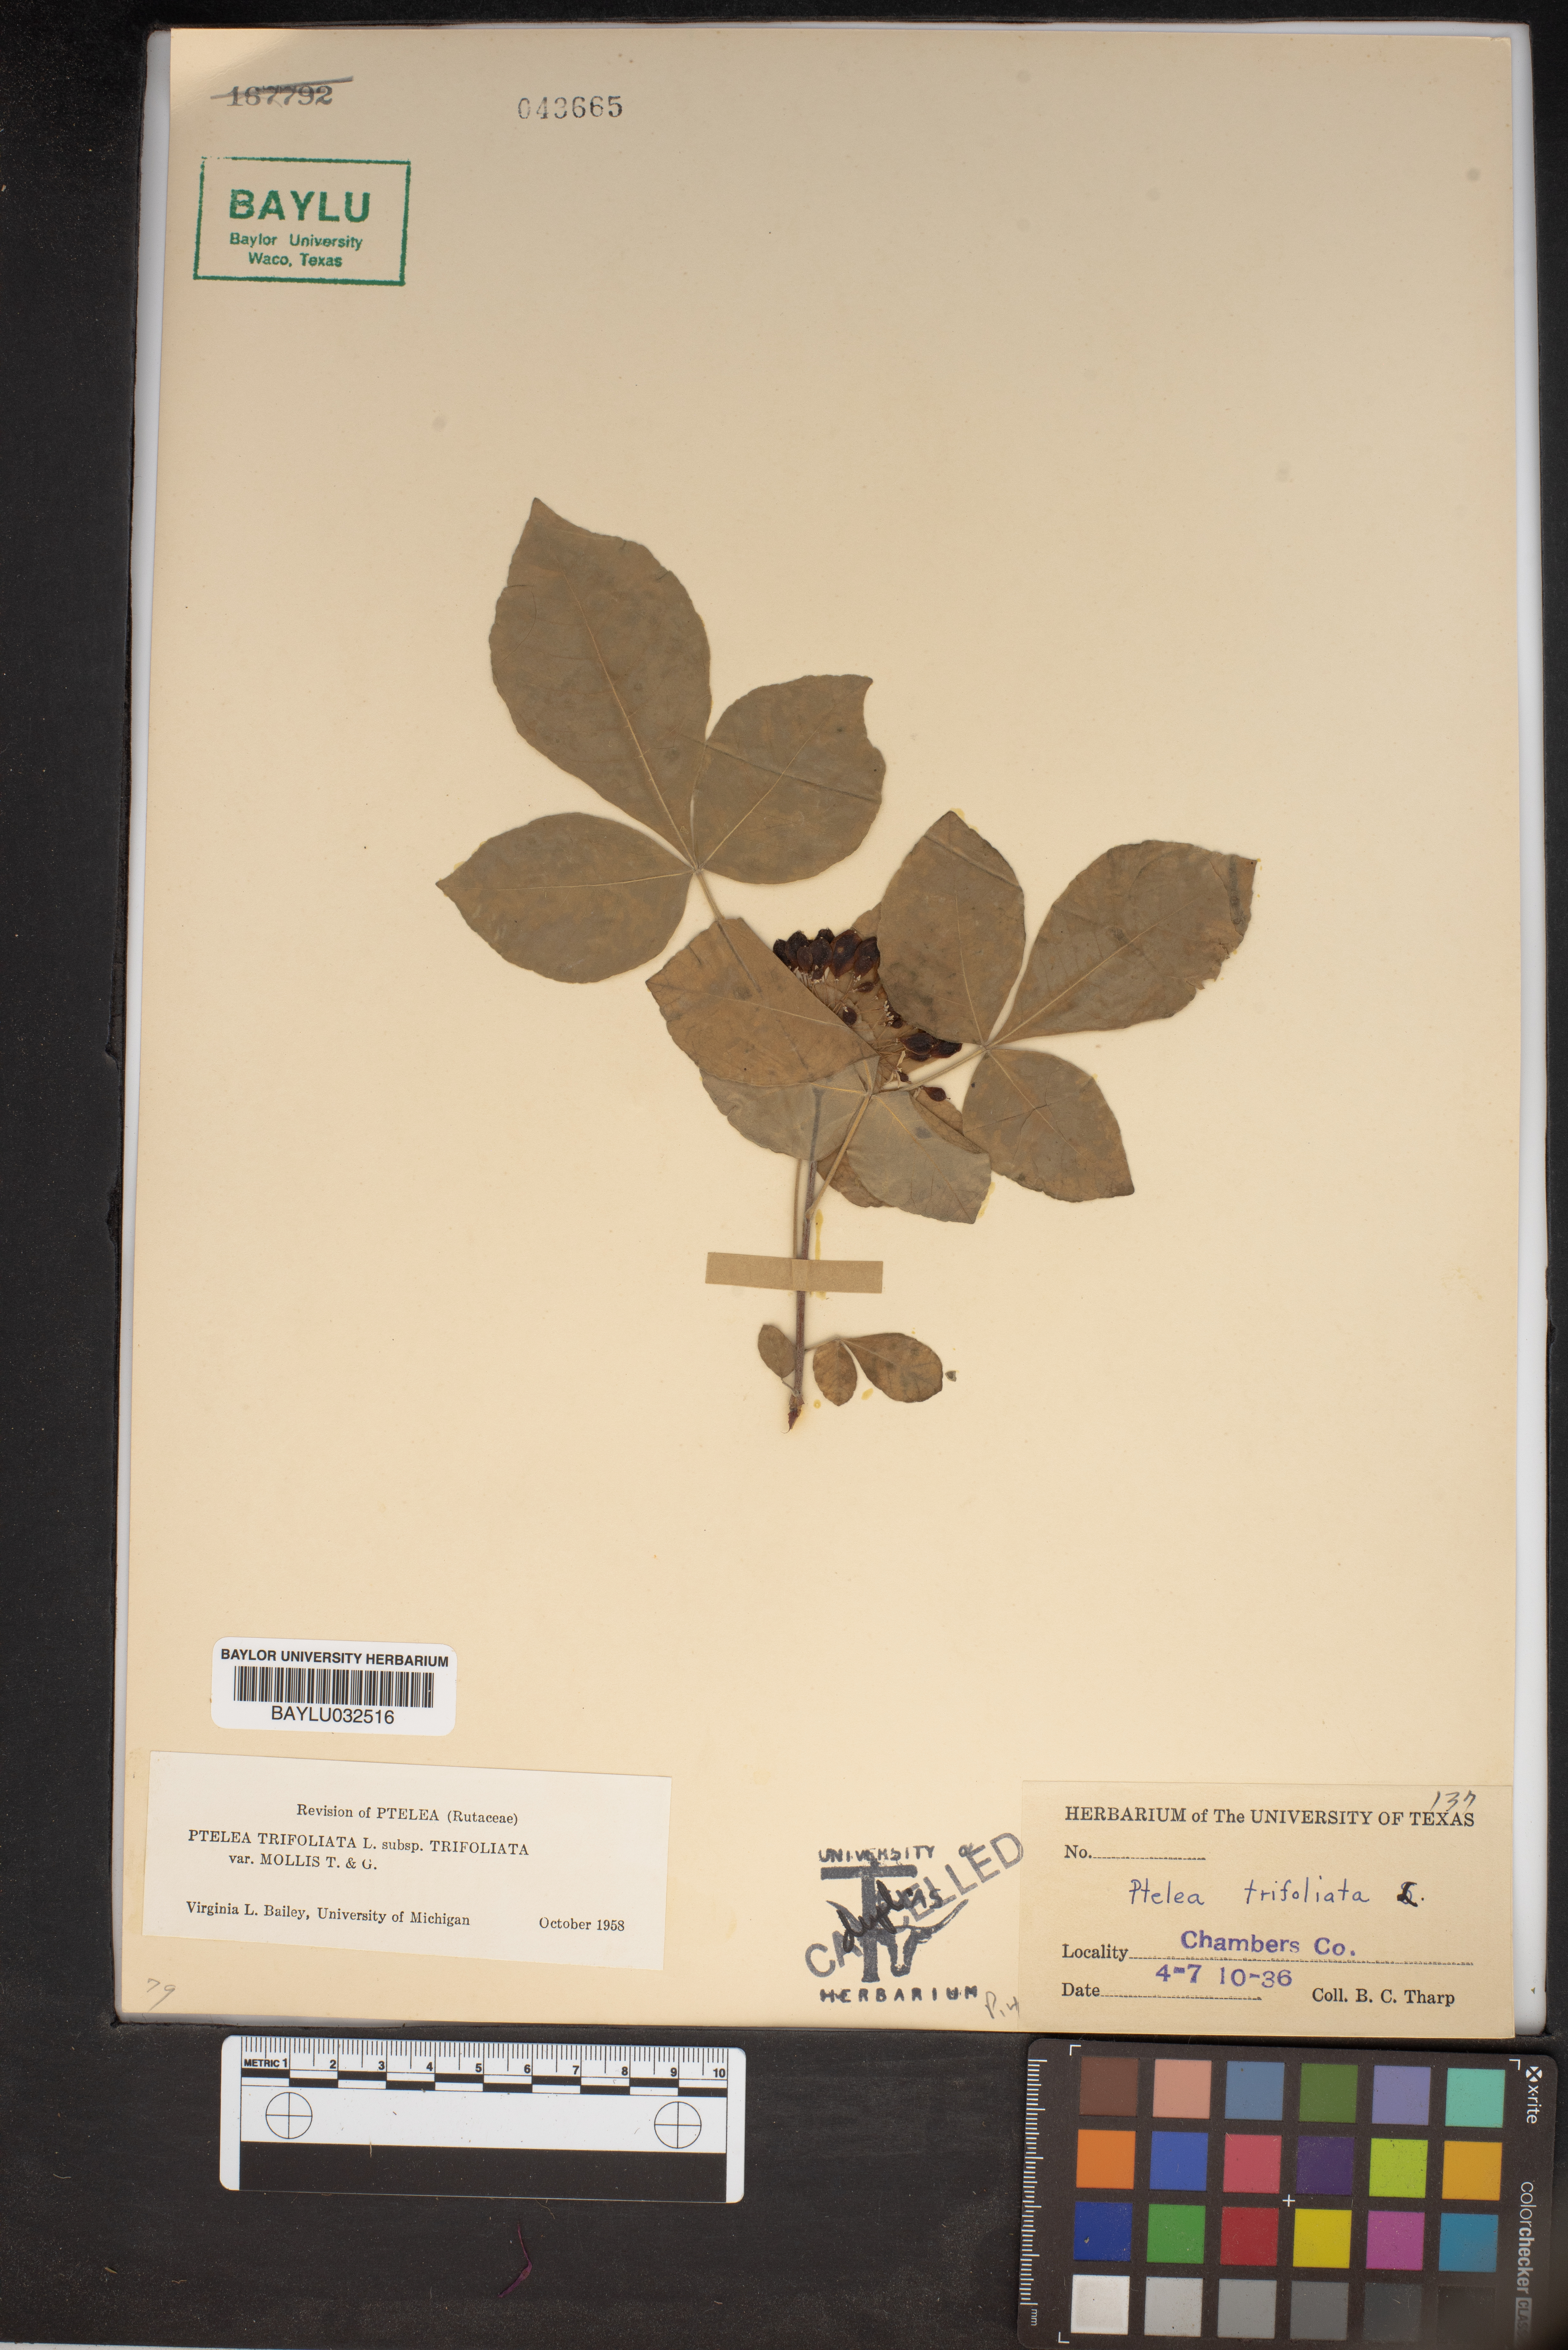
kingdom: Plantae
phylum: Tracheophyta
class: Magnoliopsida
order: Sapindales
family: Rutaceae
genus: Ptelea
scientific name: Ptelea trifoliata
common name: Common hop-tree
